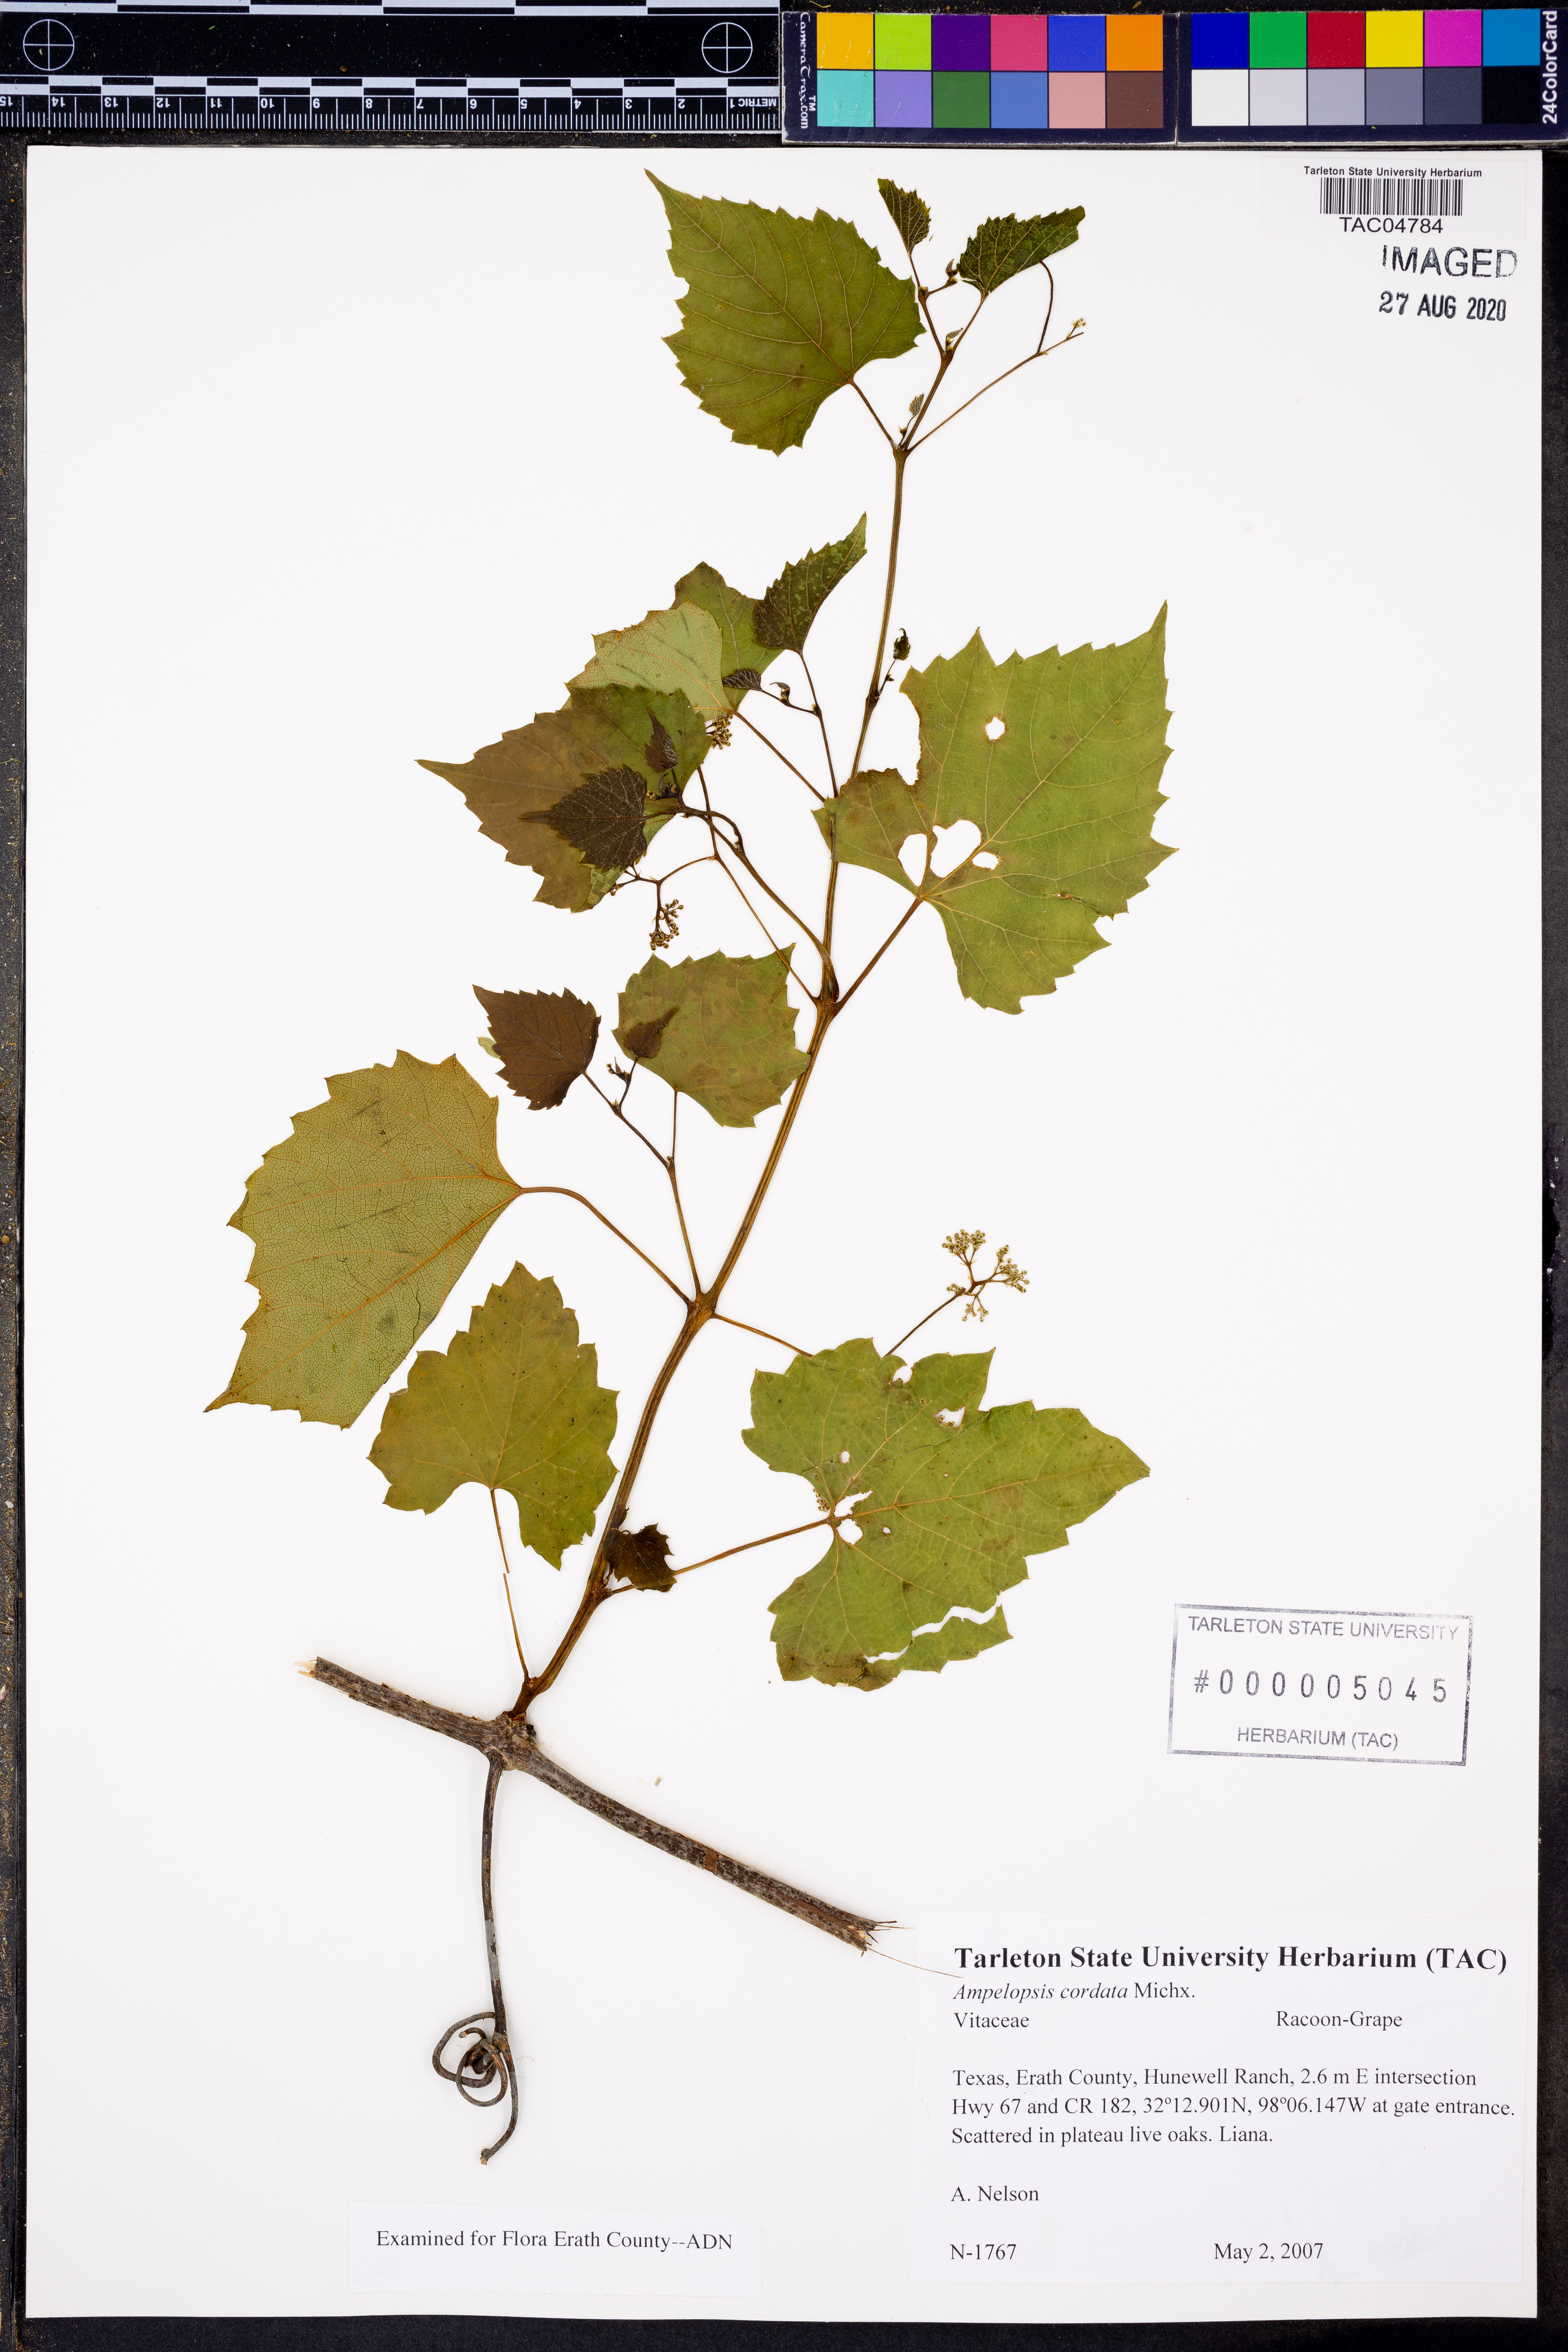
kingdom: Plantae
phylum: Tracheophyta
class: Magnoliopsida
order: Vitales
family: Vitaceae
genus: Ampelopsis
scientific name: Ampelopsis cordata
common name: Heart-leaf ampelopsis
